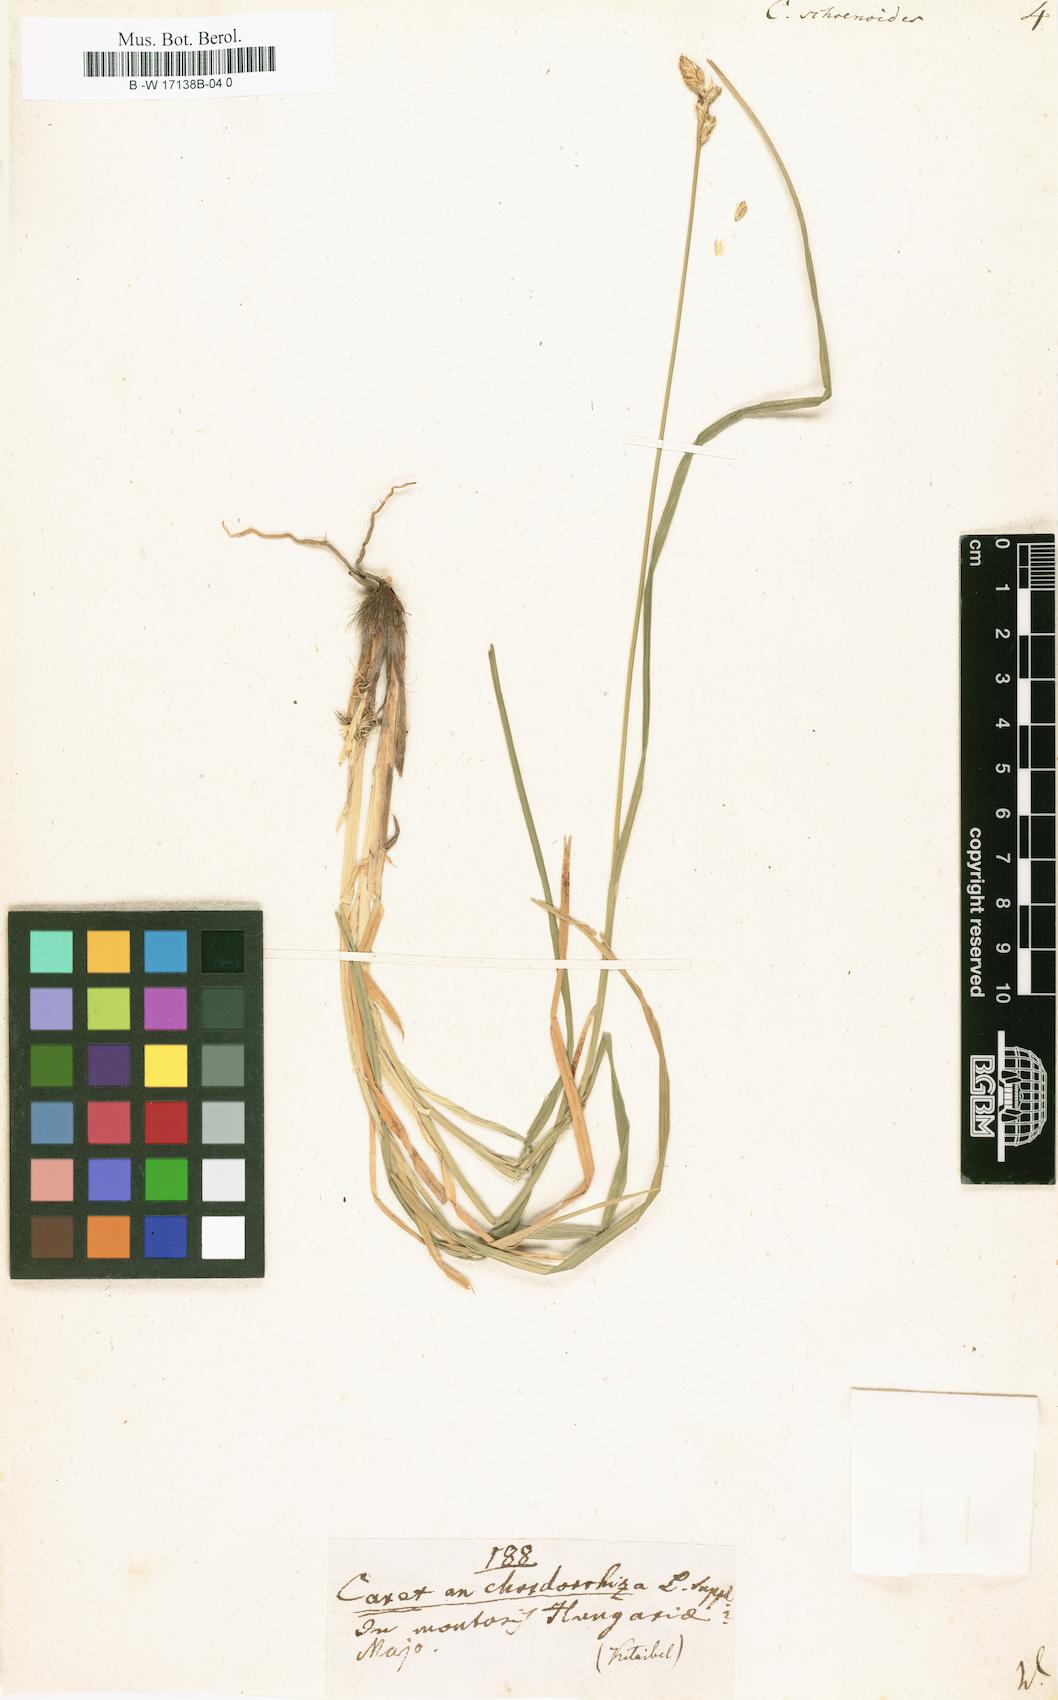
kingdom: Plantae
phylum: Tracheophyta
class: Liliopsida
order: Poales
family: Cyperaceae
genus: Carex
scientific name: Carex colchica
